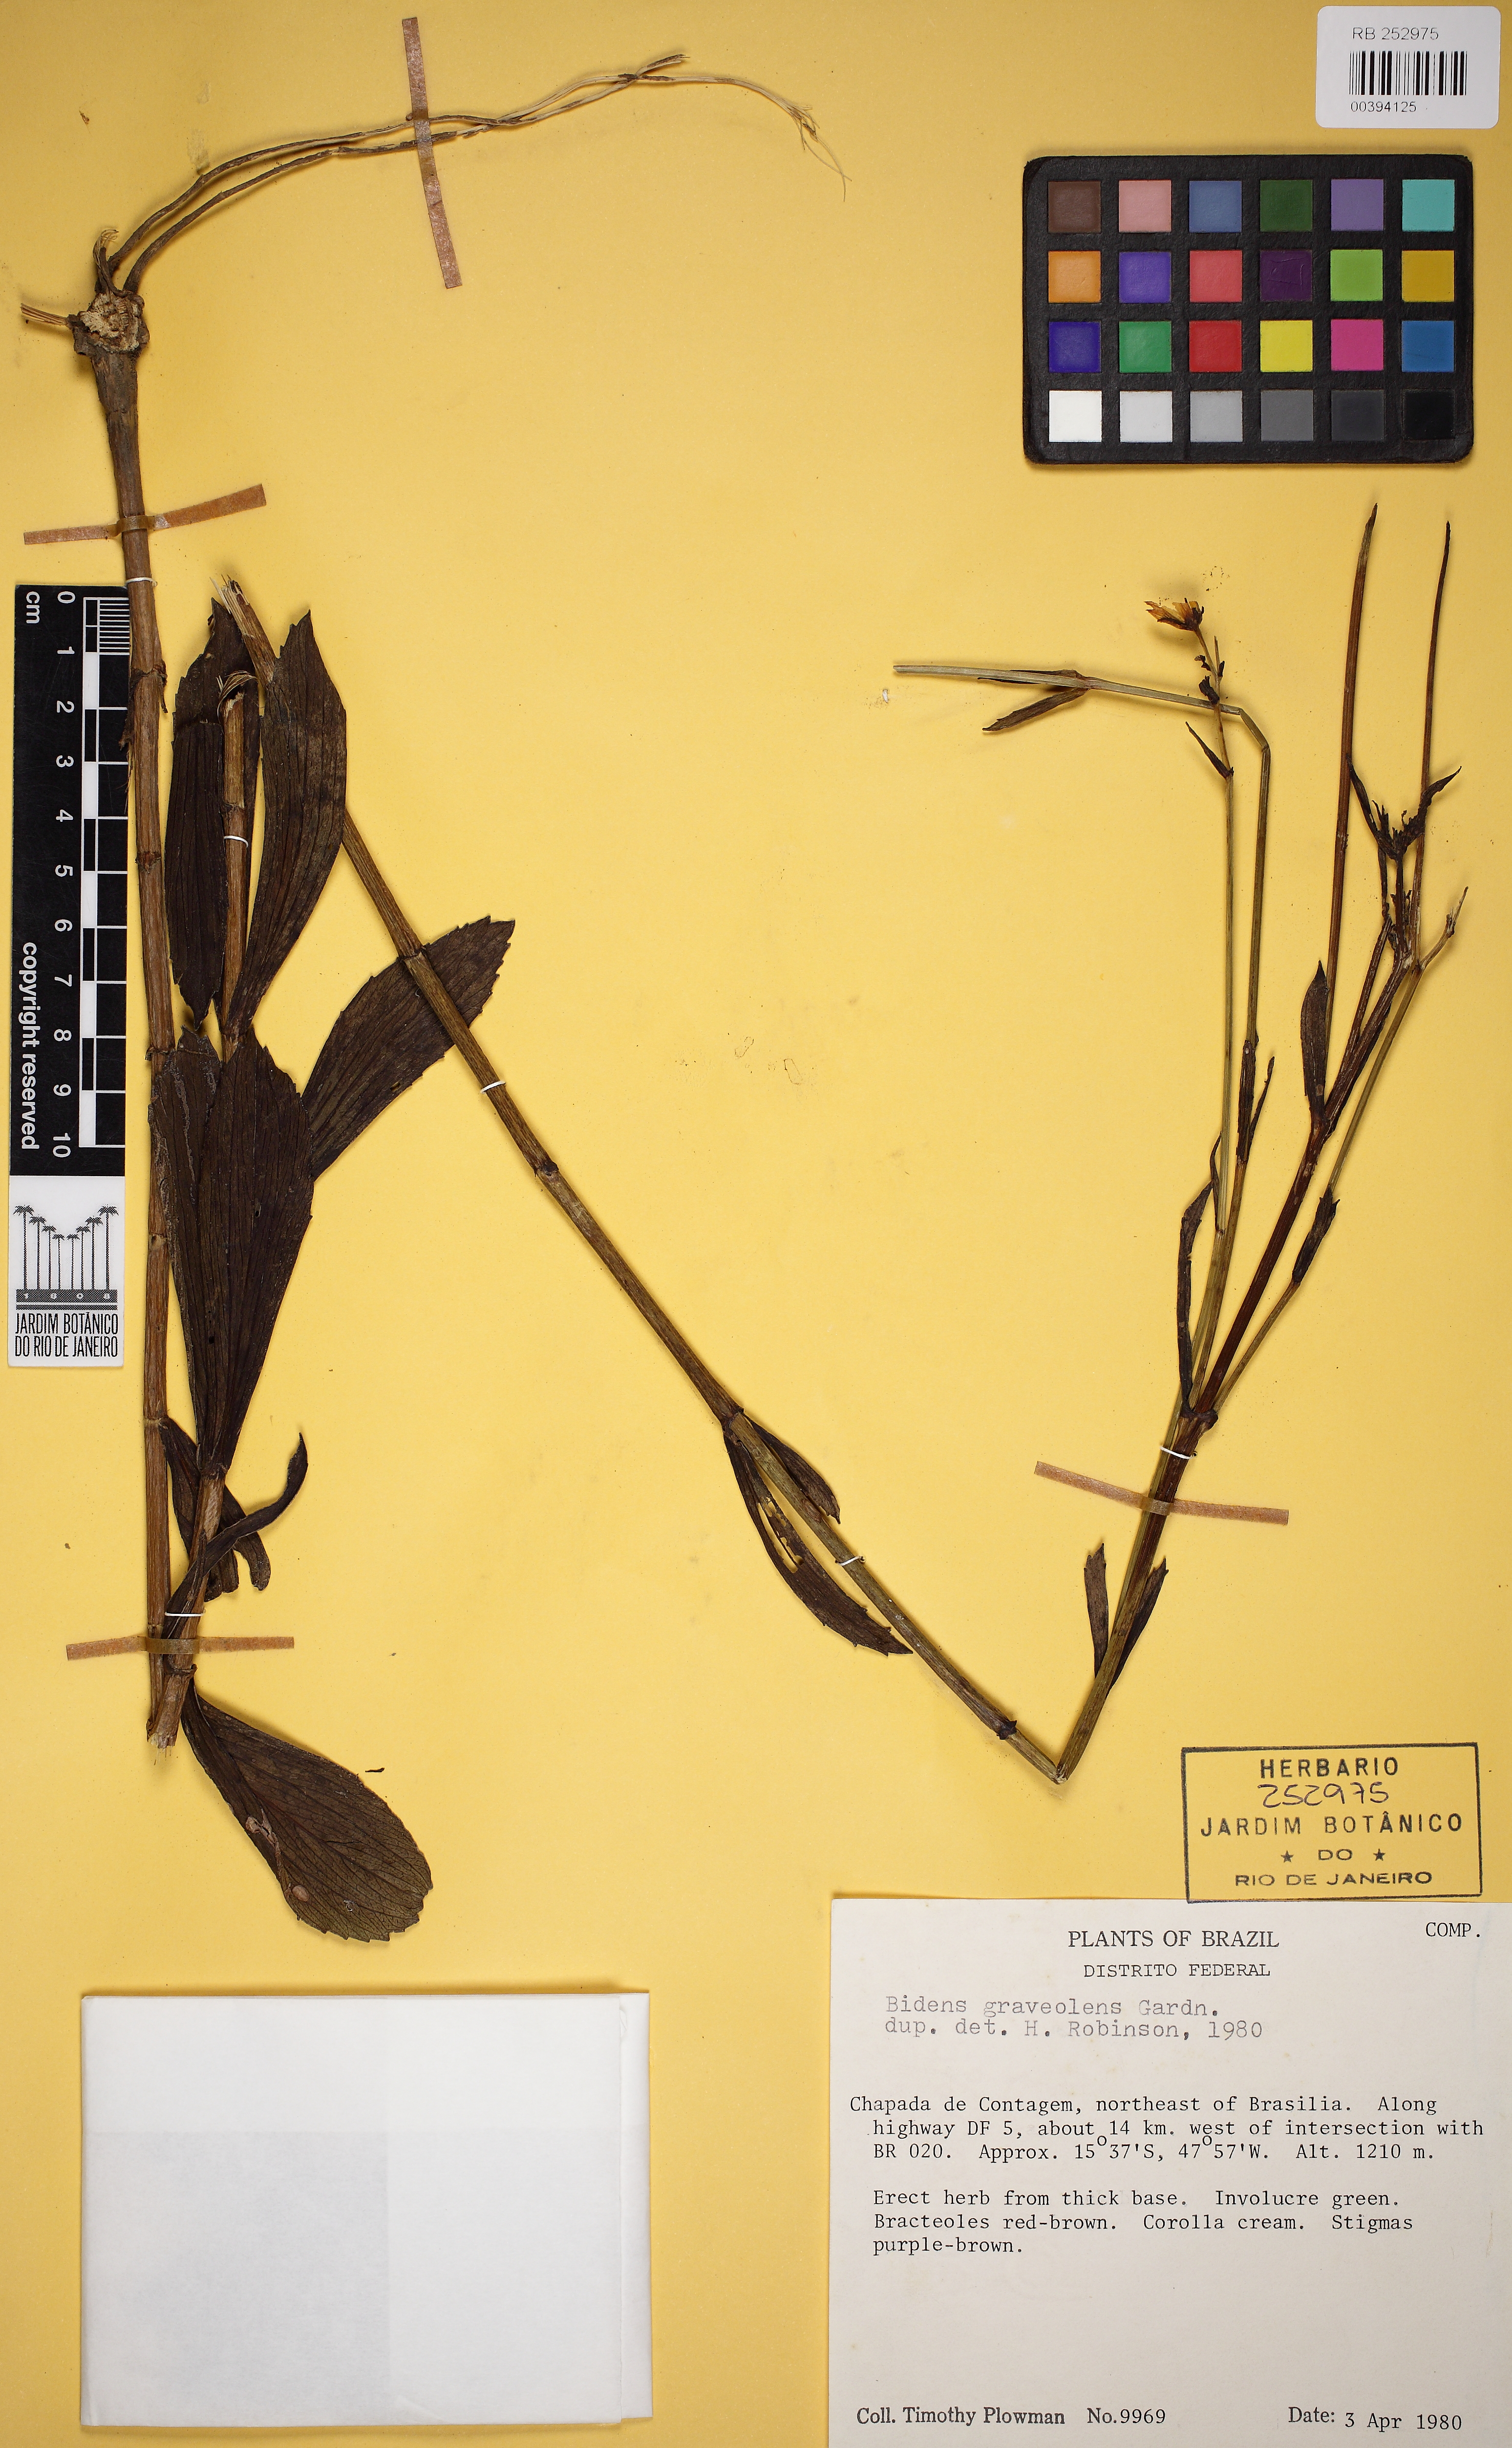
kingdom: Plantae
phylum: Tracheophyta
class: Magnoliopsida
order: Asterales
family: Asteraceae
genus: Bidens
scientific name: Bidens graveolens
